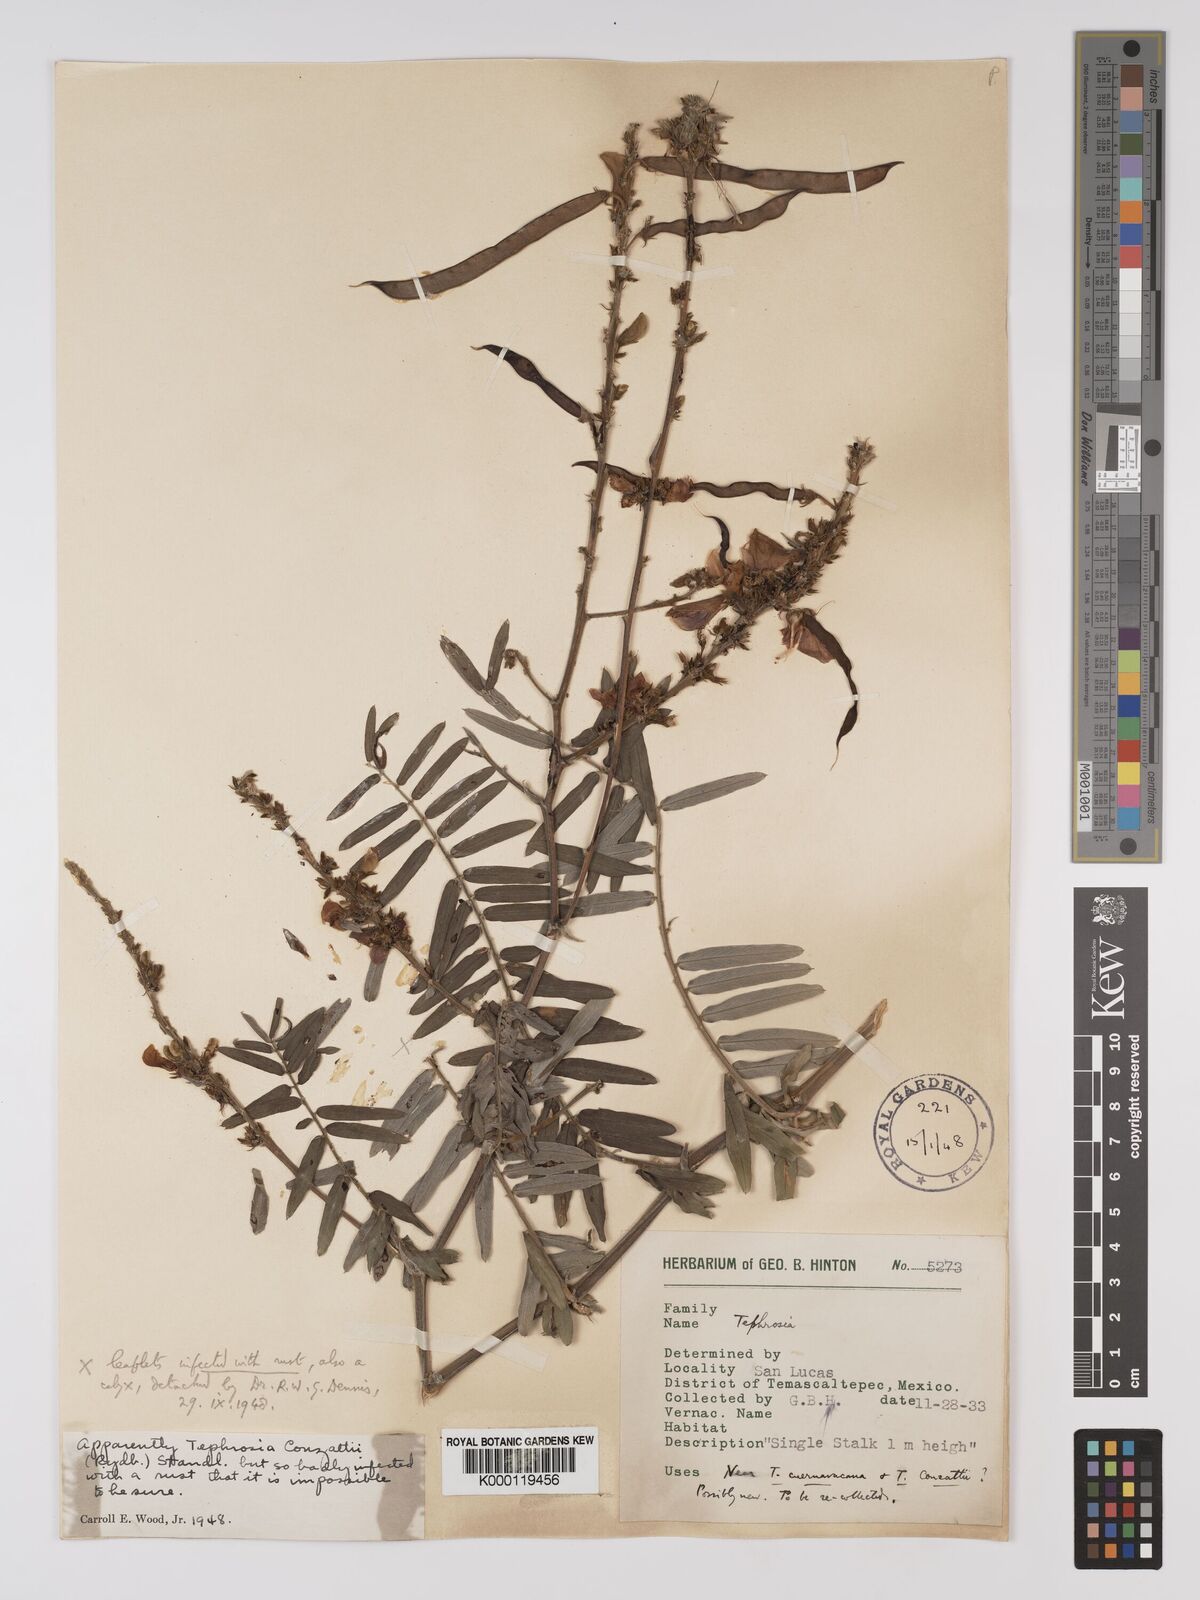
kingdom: Plantae
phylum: Tracheophyta
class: Magnoliopsida
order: Fabales
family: Fabaceae
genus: Tephrosia
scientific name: Tephrosia conzattii
